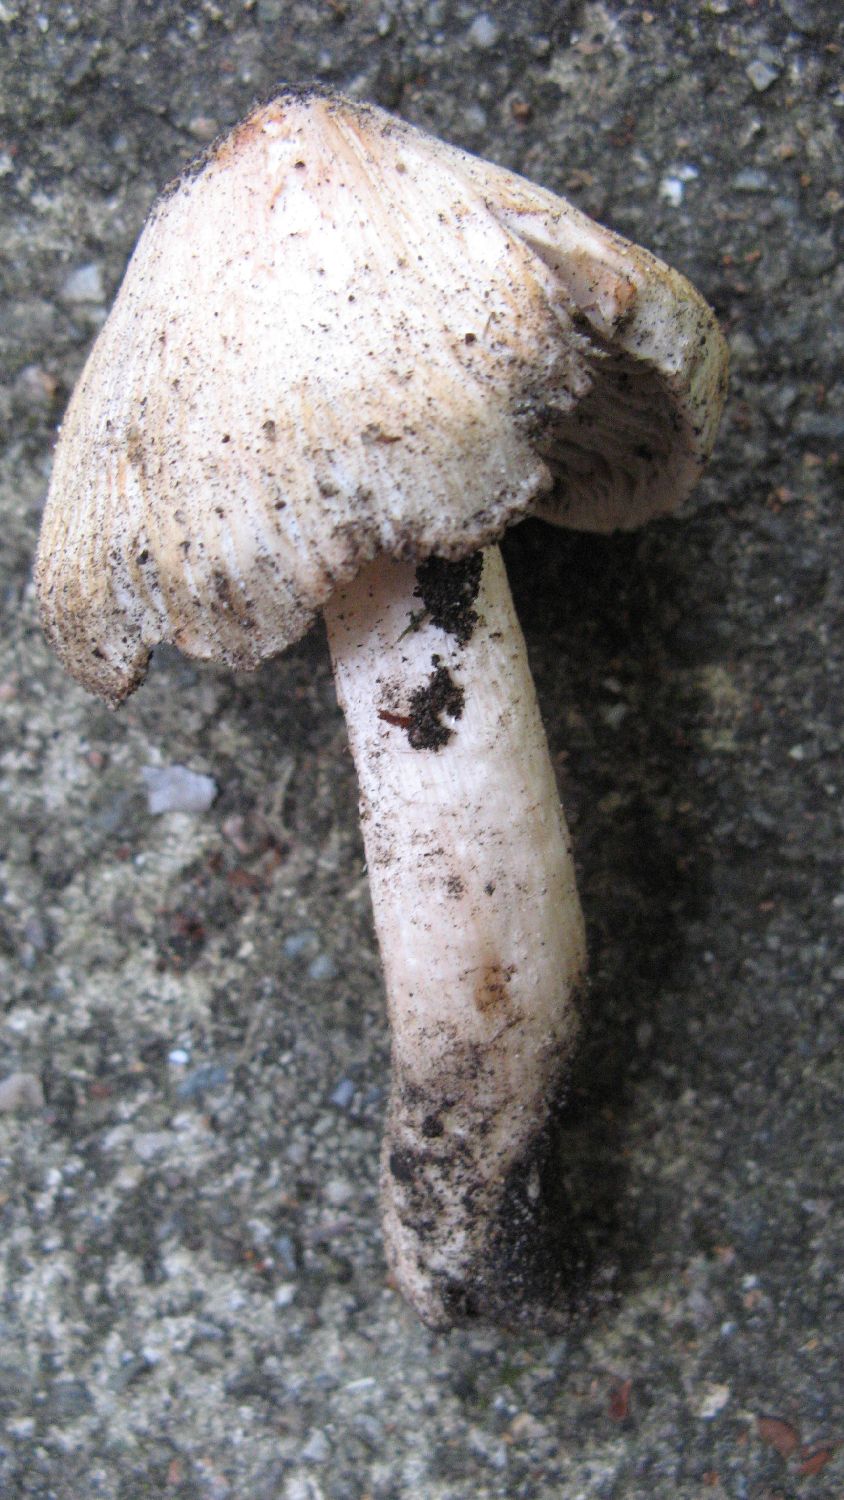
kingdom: Fungi
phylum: Basidiomycota
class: Agaricomycetes
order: Agaricales
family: Inocybaceae
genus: Inosperma
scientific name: Inosperma erubescens
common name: giftig trævlhat
